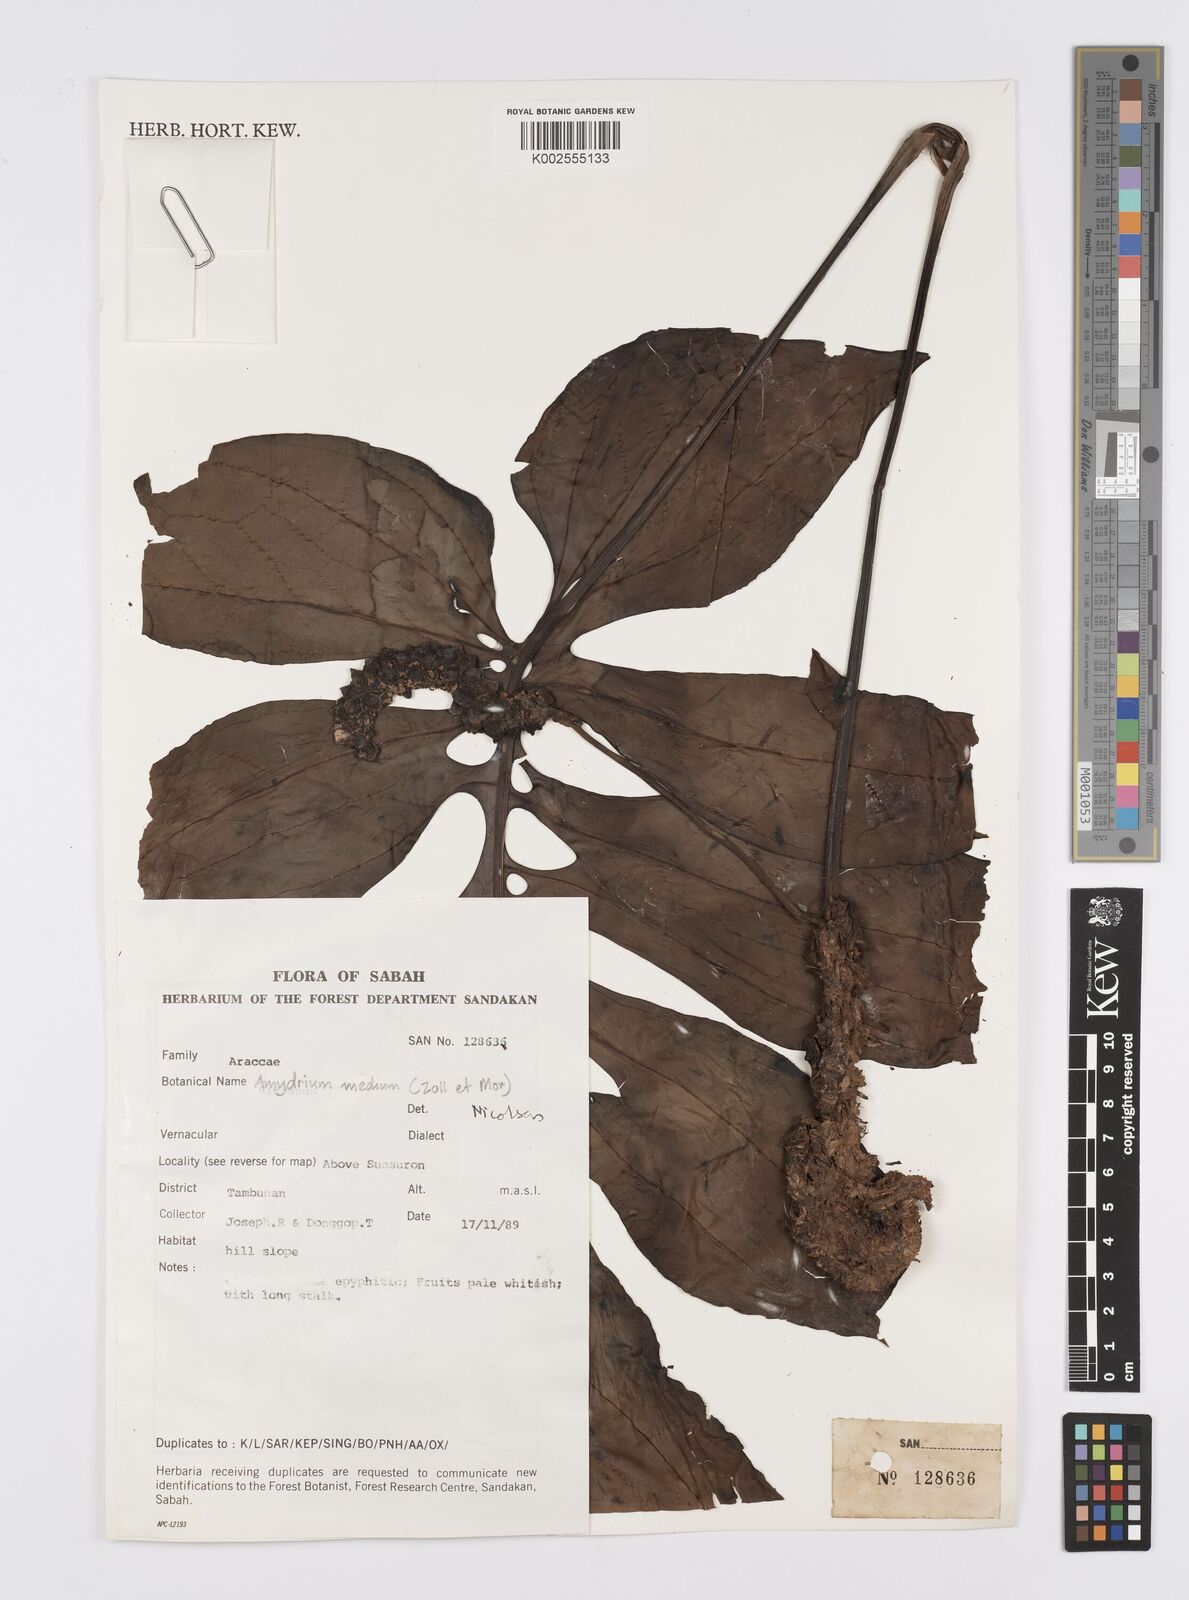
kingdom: Plantae
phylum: Tracheophyta
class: Liliopsida
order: Alismatales
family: Araceae
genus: Amydrium
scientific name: Amydrium medium
